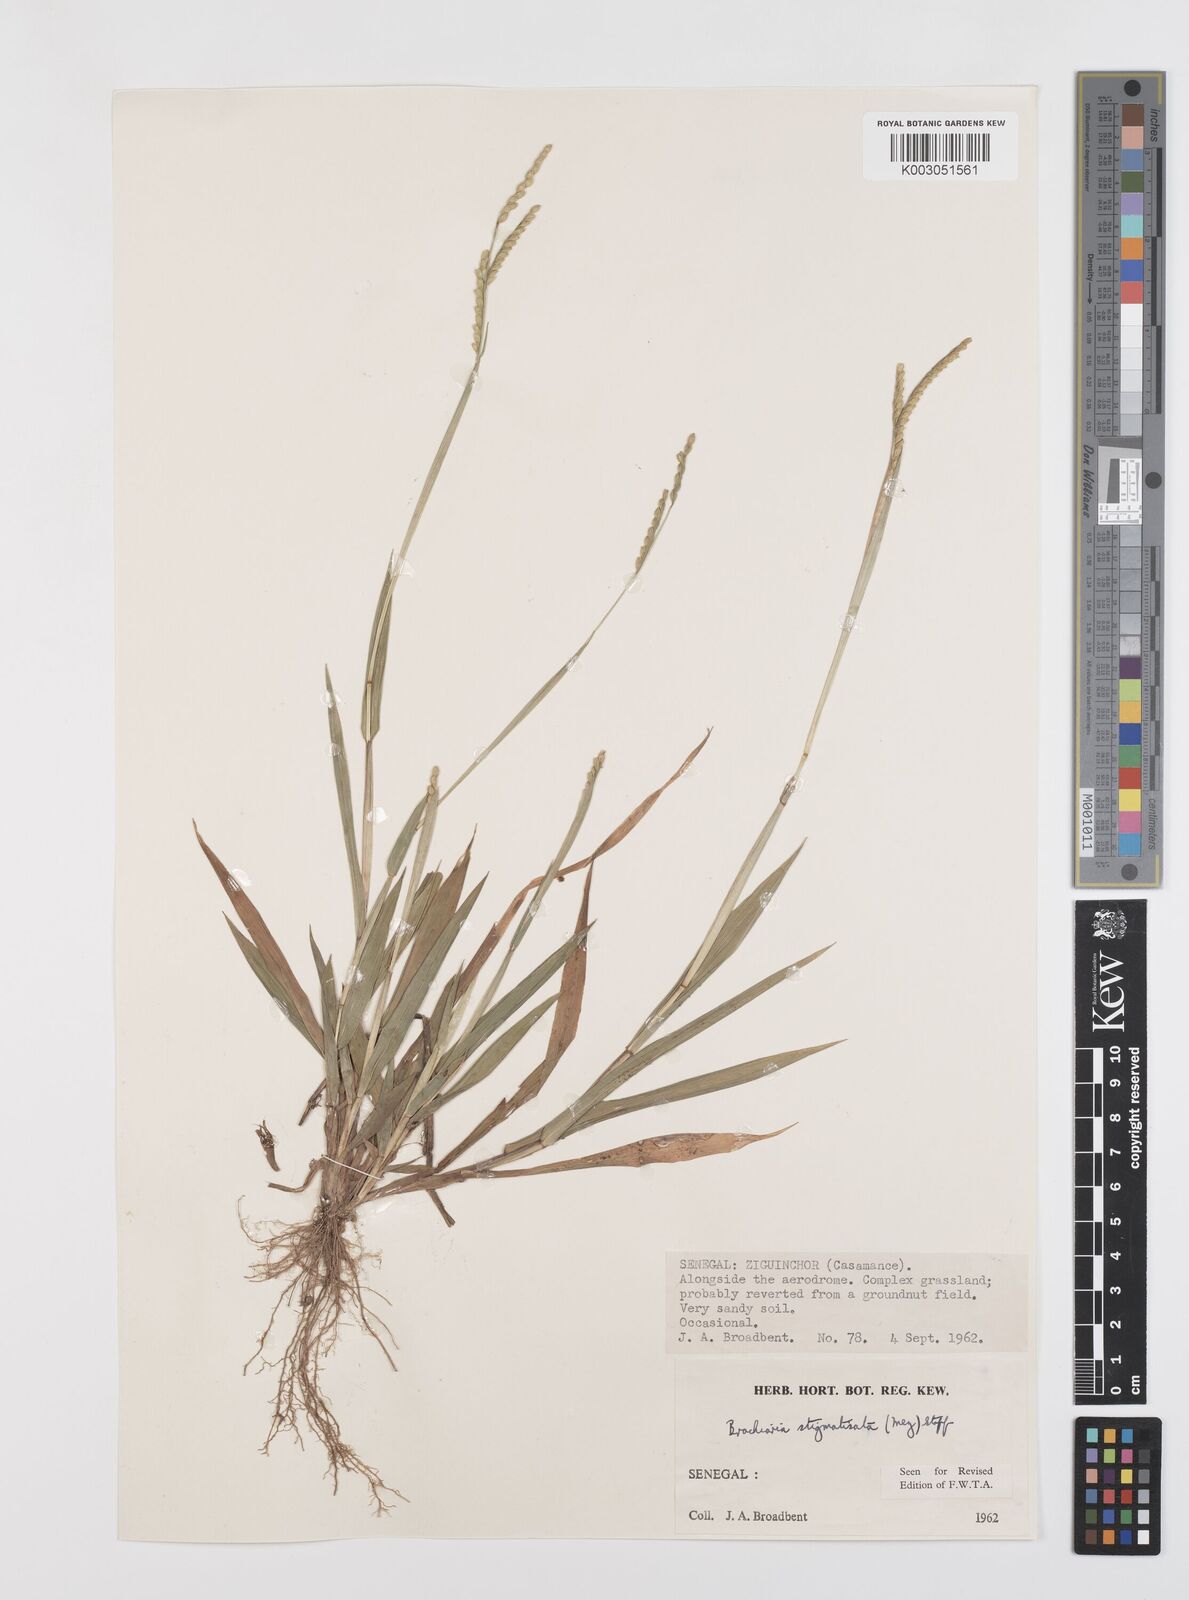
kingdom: Plantae
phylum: Tracheophyta
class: Liliopsida
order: Poales
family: Poaceae
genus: Urochloa
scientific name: Urochloa stigmatisata
